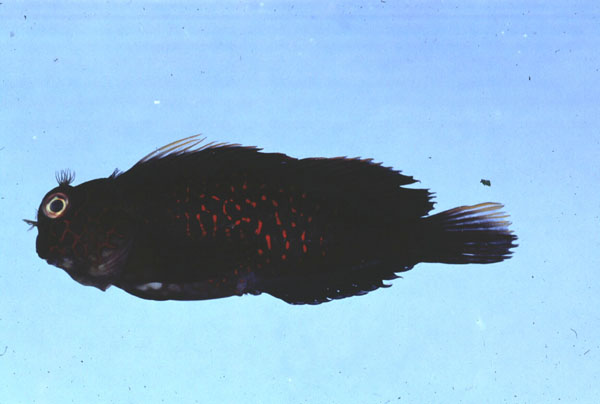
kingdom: Animalia
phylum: Chordata
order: Perciformes
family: Blenniidae
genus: Cirripectes
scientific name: Cirripectes stigmaticus
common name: Red-streaked blenny
